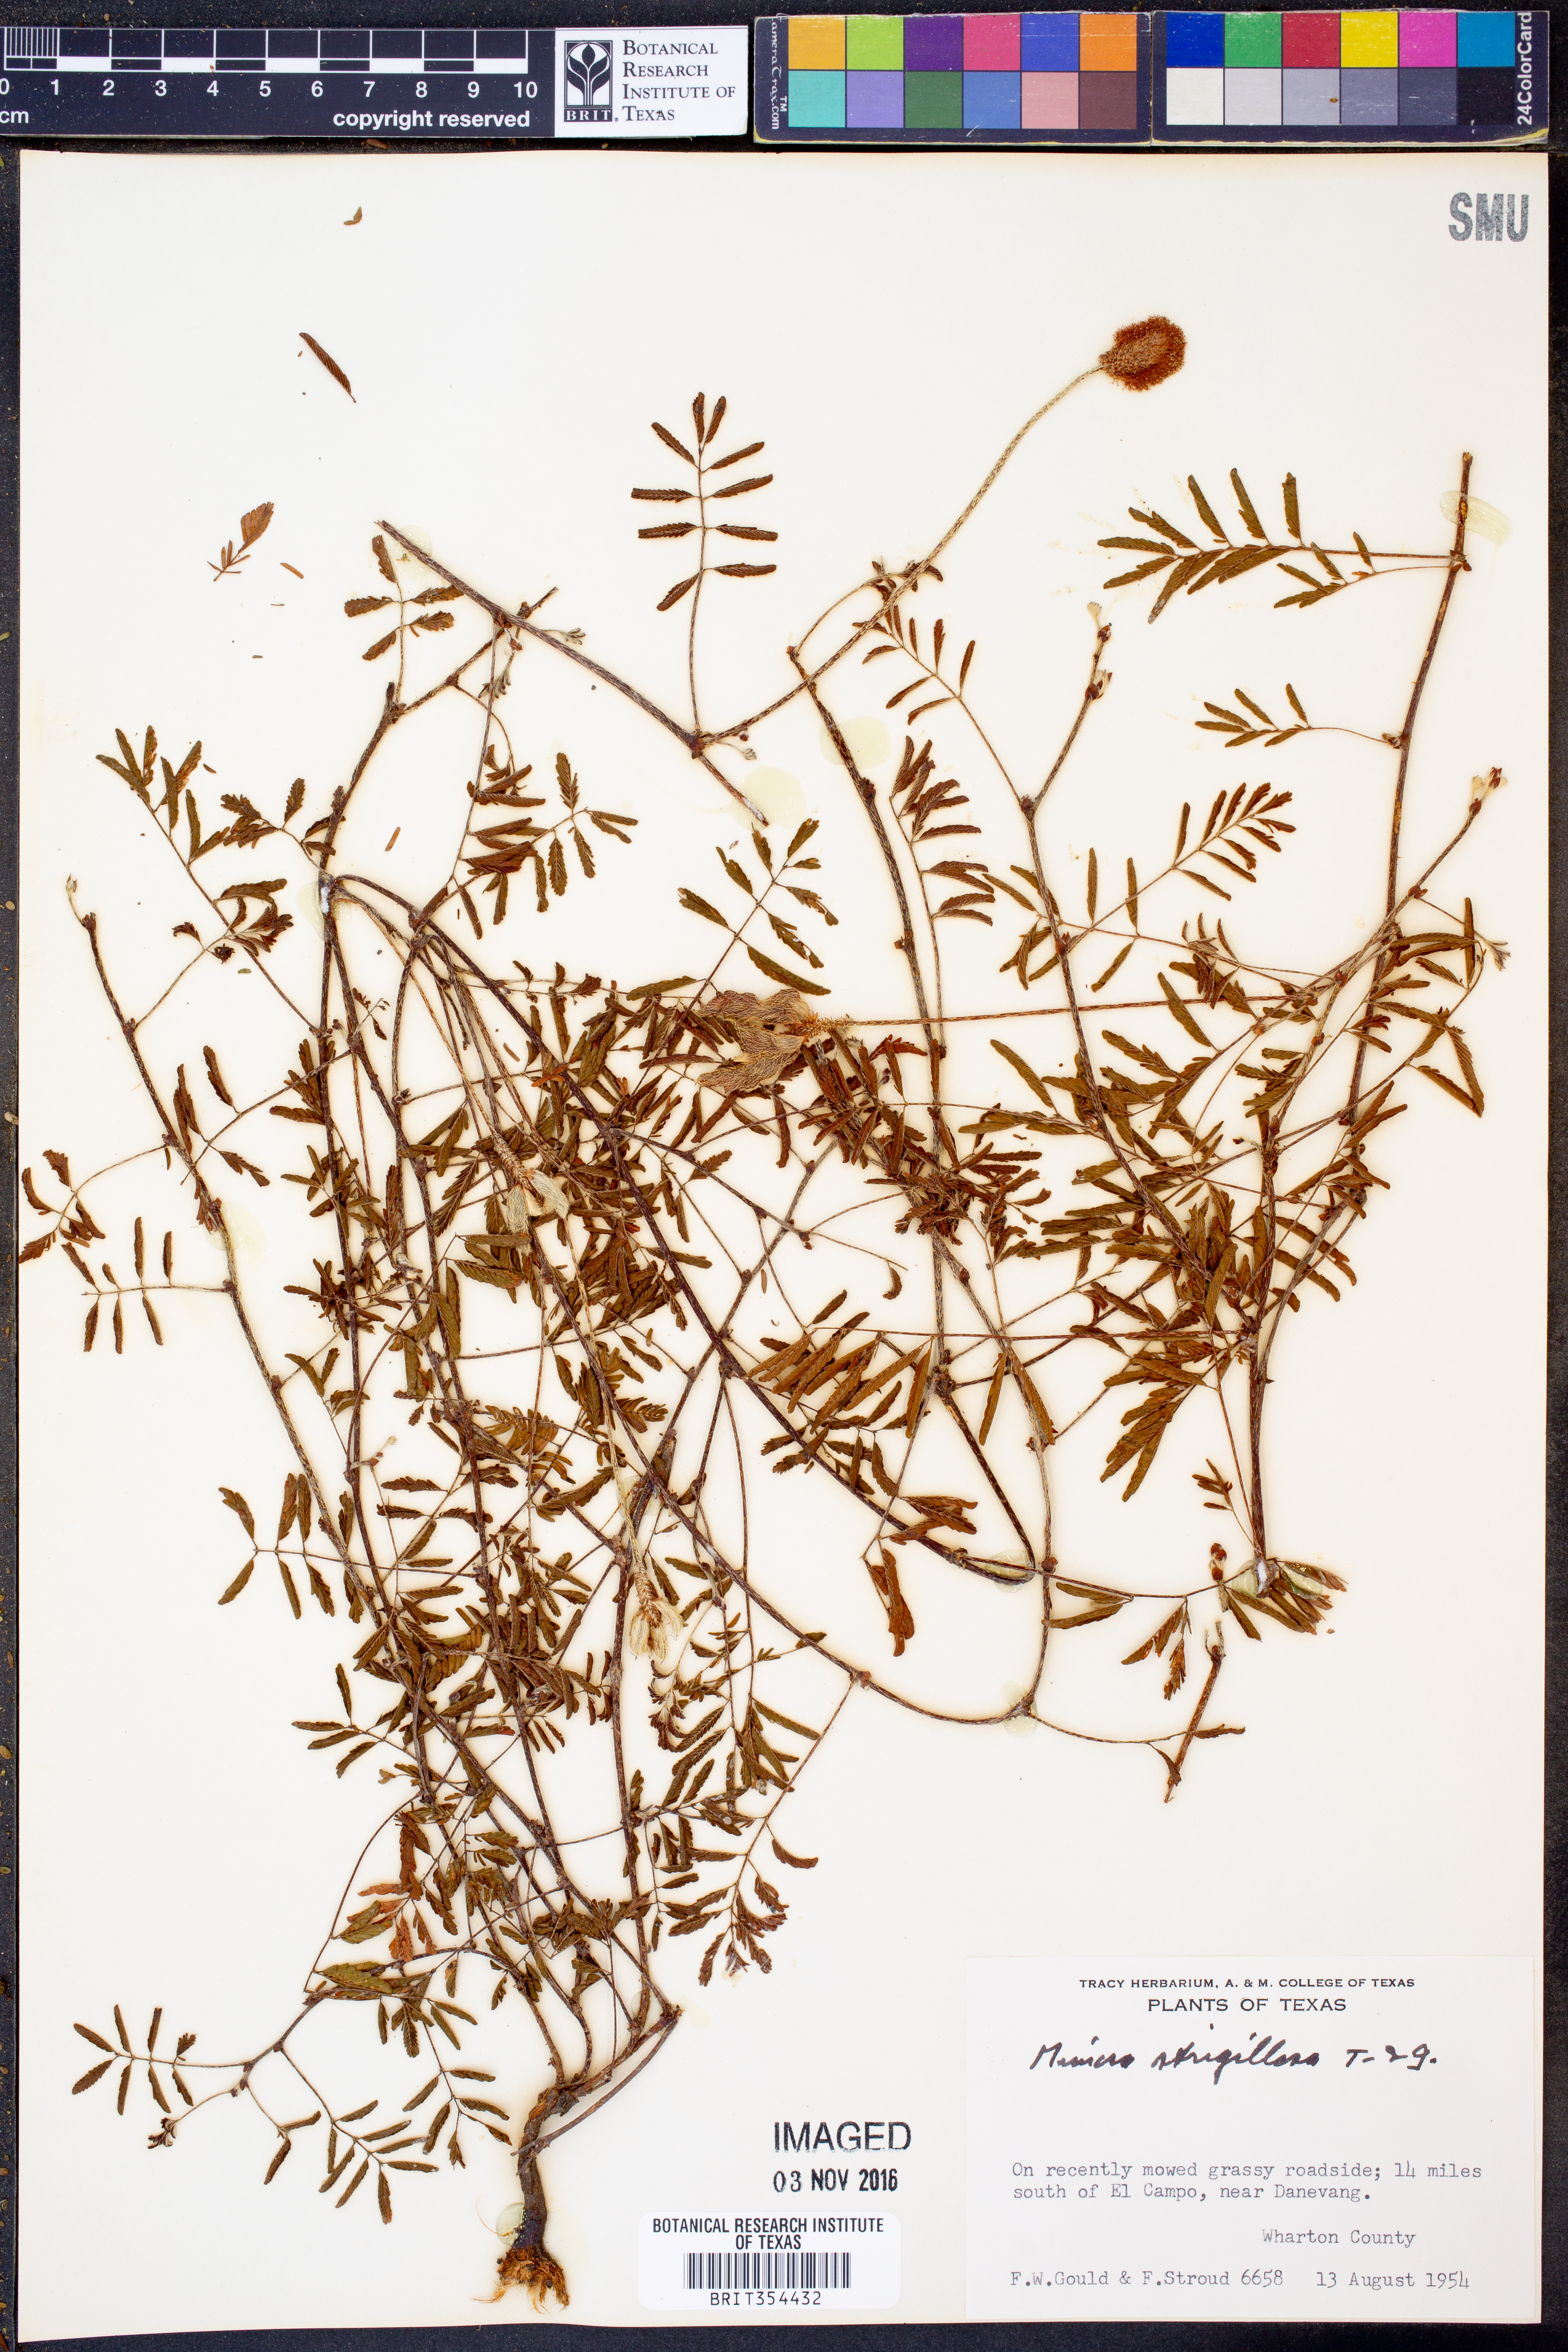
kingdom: Plantae
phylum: Tracheophyta
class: Magnoliopsida
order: Fabales
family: Fabaceae
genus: Mimosa
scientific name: Mimosa strigillosa
